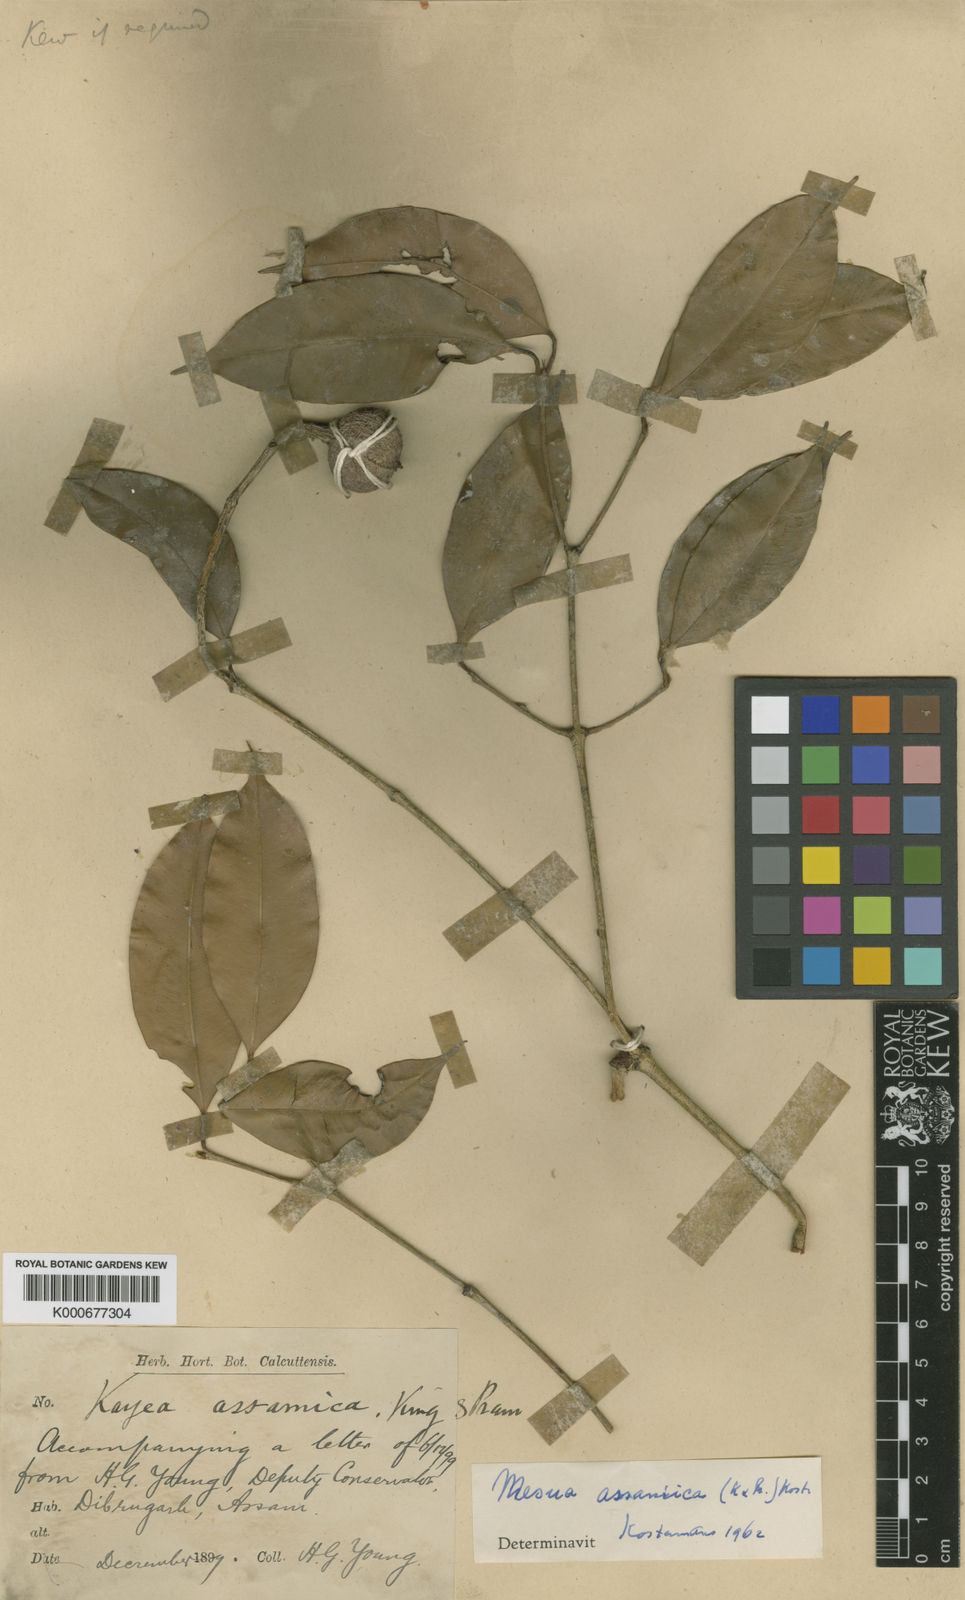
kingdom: Plantae
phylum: Tracheophyta
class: Magnoliopsida
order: Malpighiales
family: Calophyllaceae
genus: Kayea
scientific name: Kayea assamica
